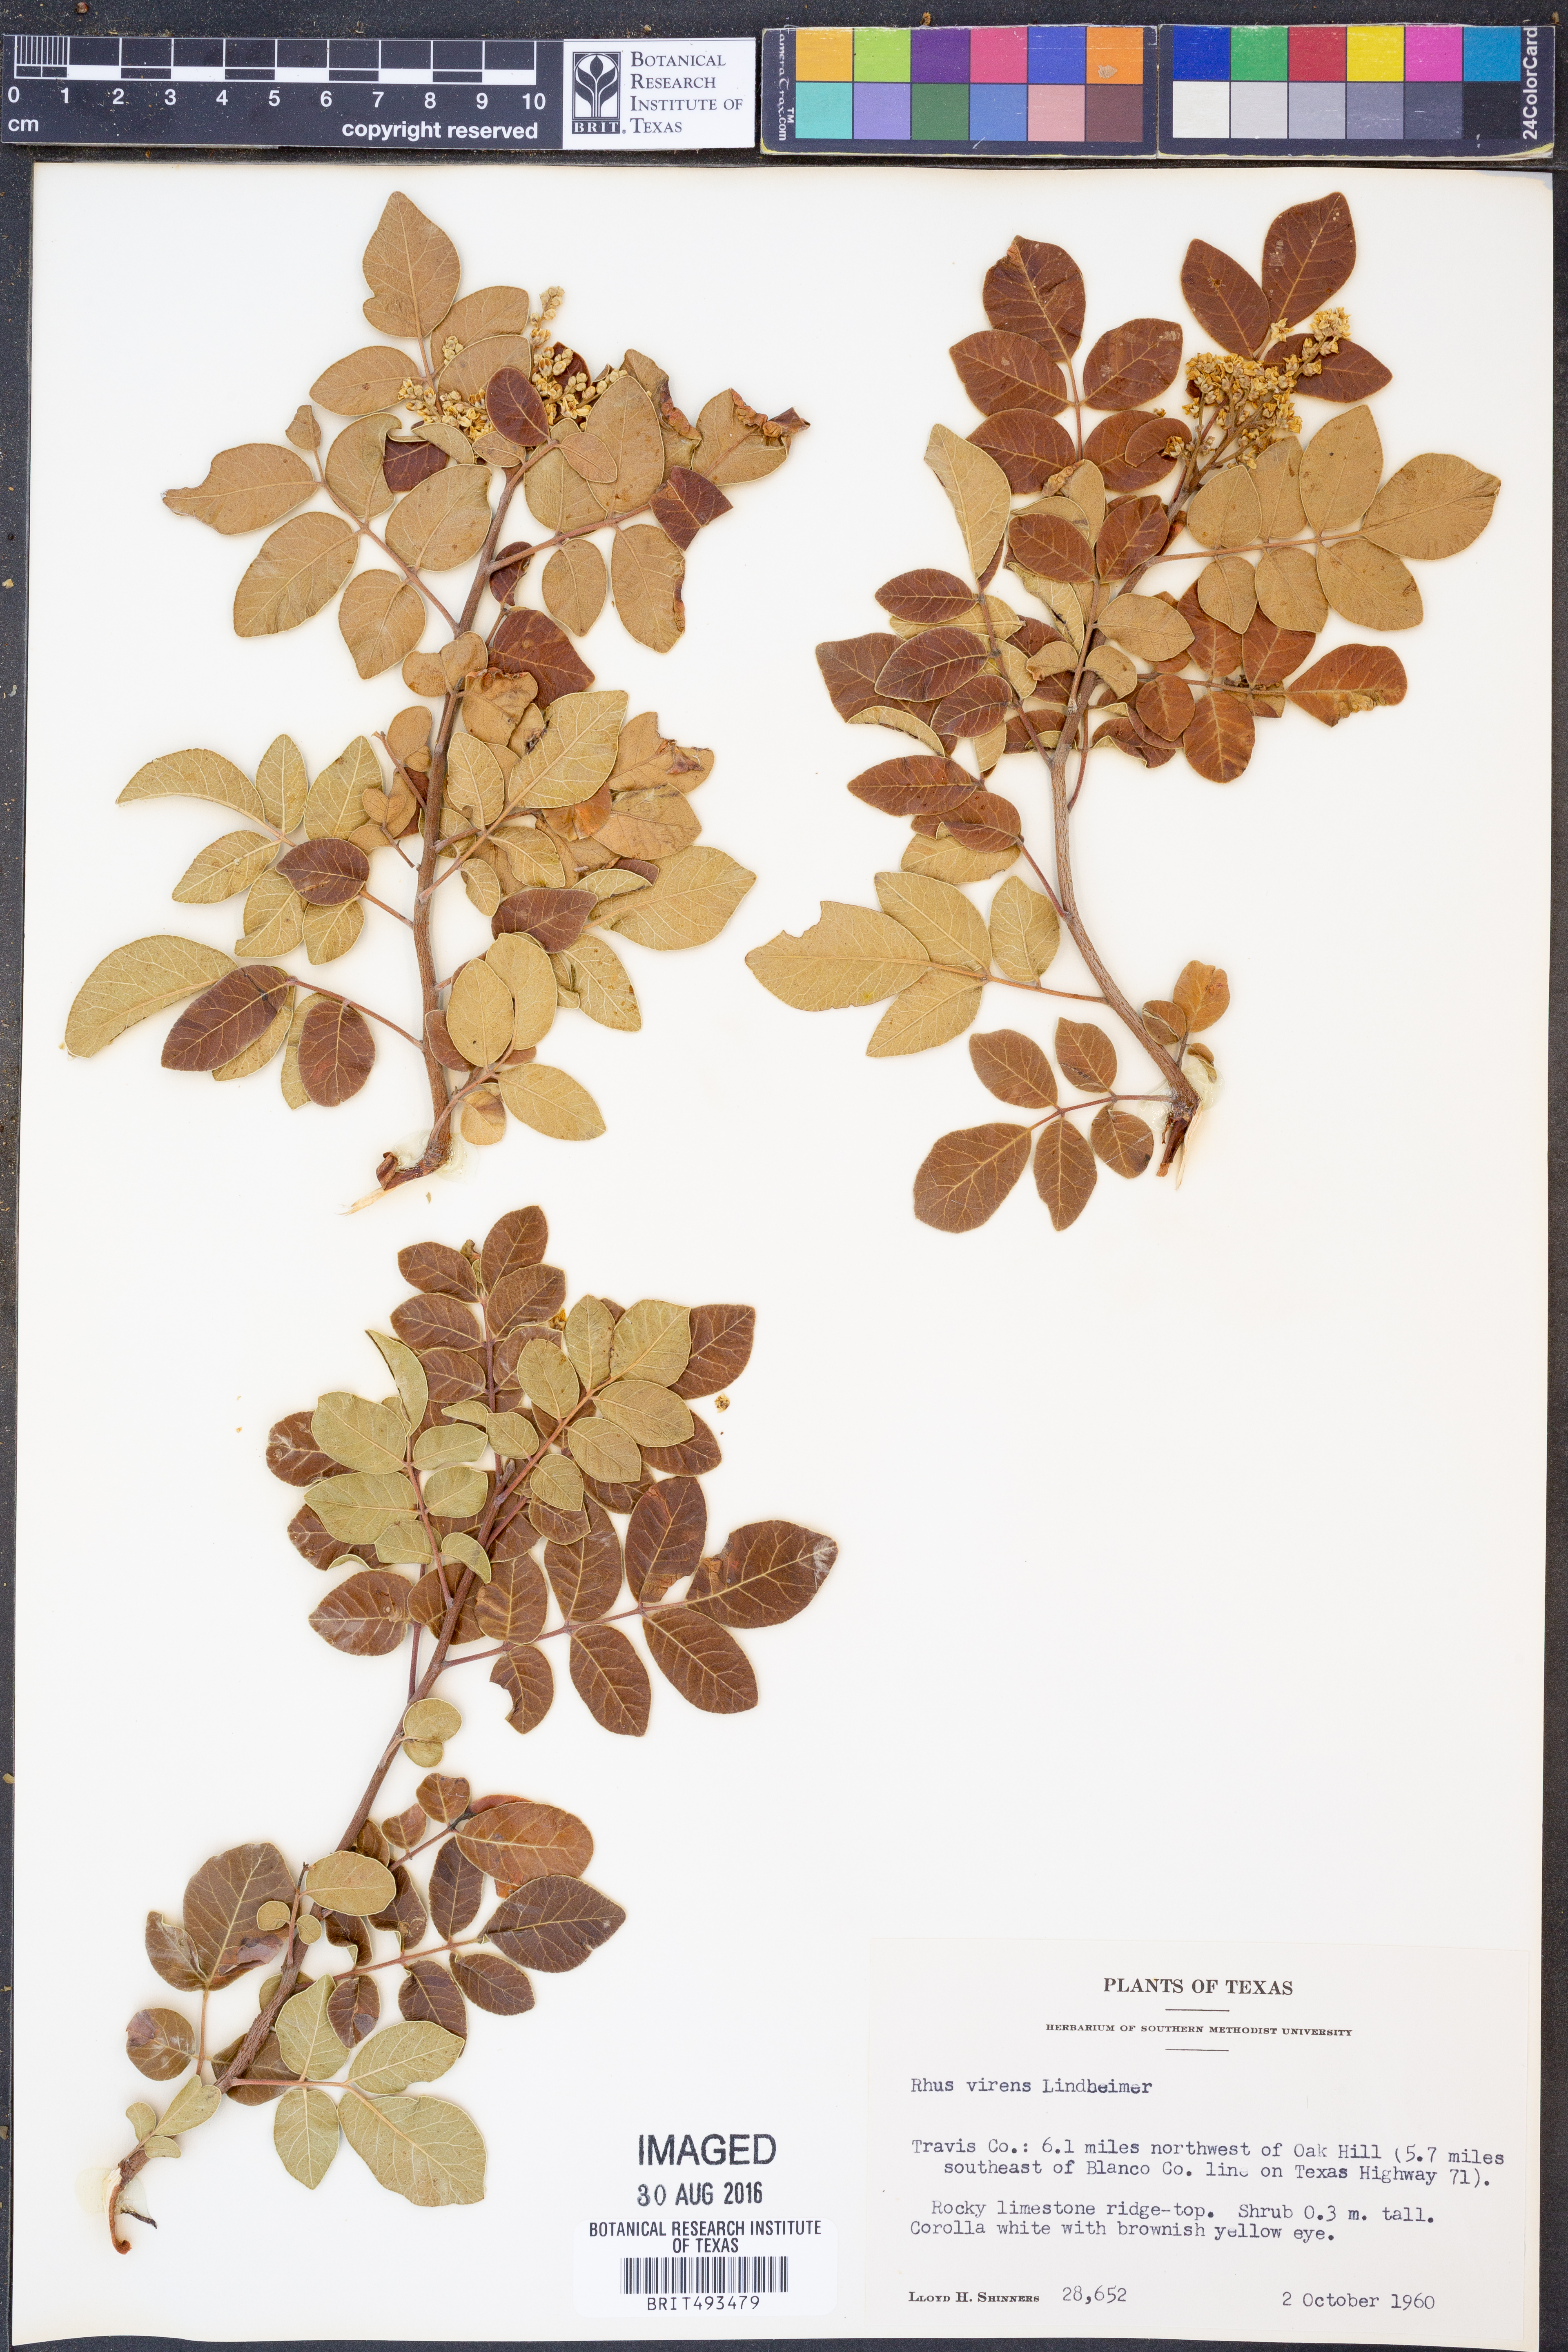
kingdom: Plantae
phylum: Tracheophyta
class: Magnoliopsida
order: Sapindales
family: Anacardiaceae
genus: Rhus
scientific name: Rhus virens
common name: Evergreen sumac
